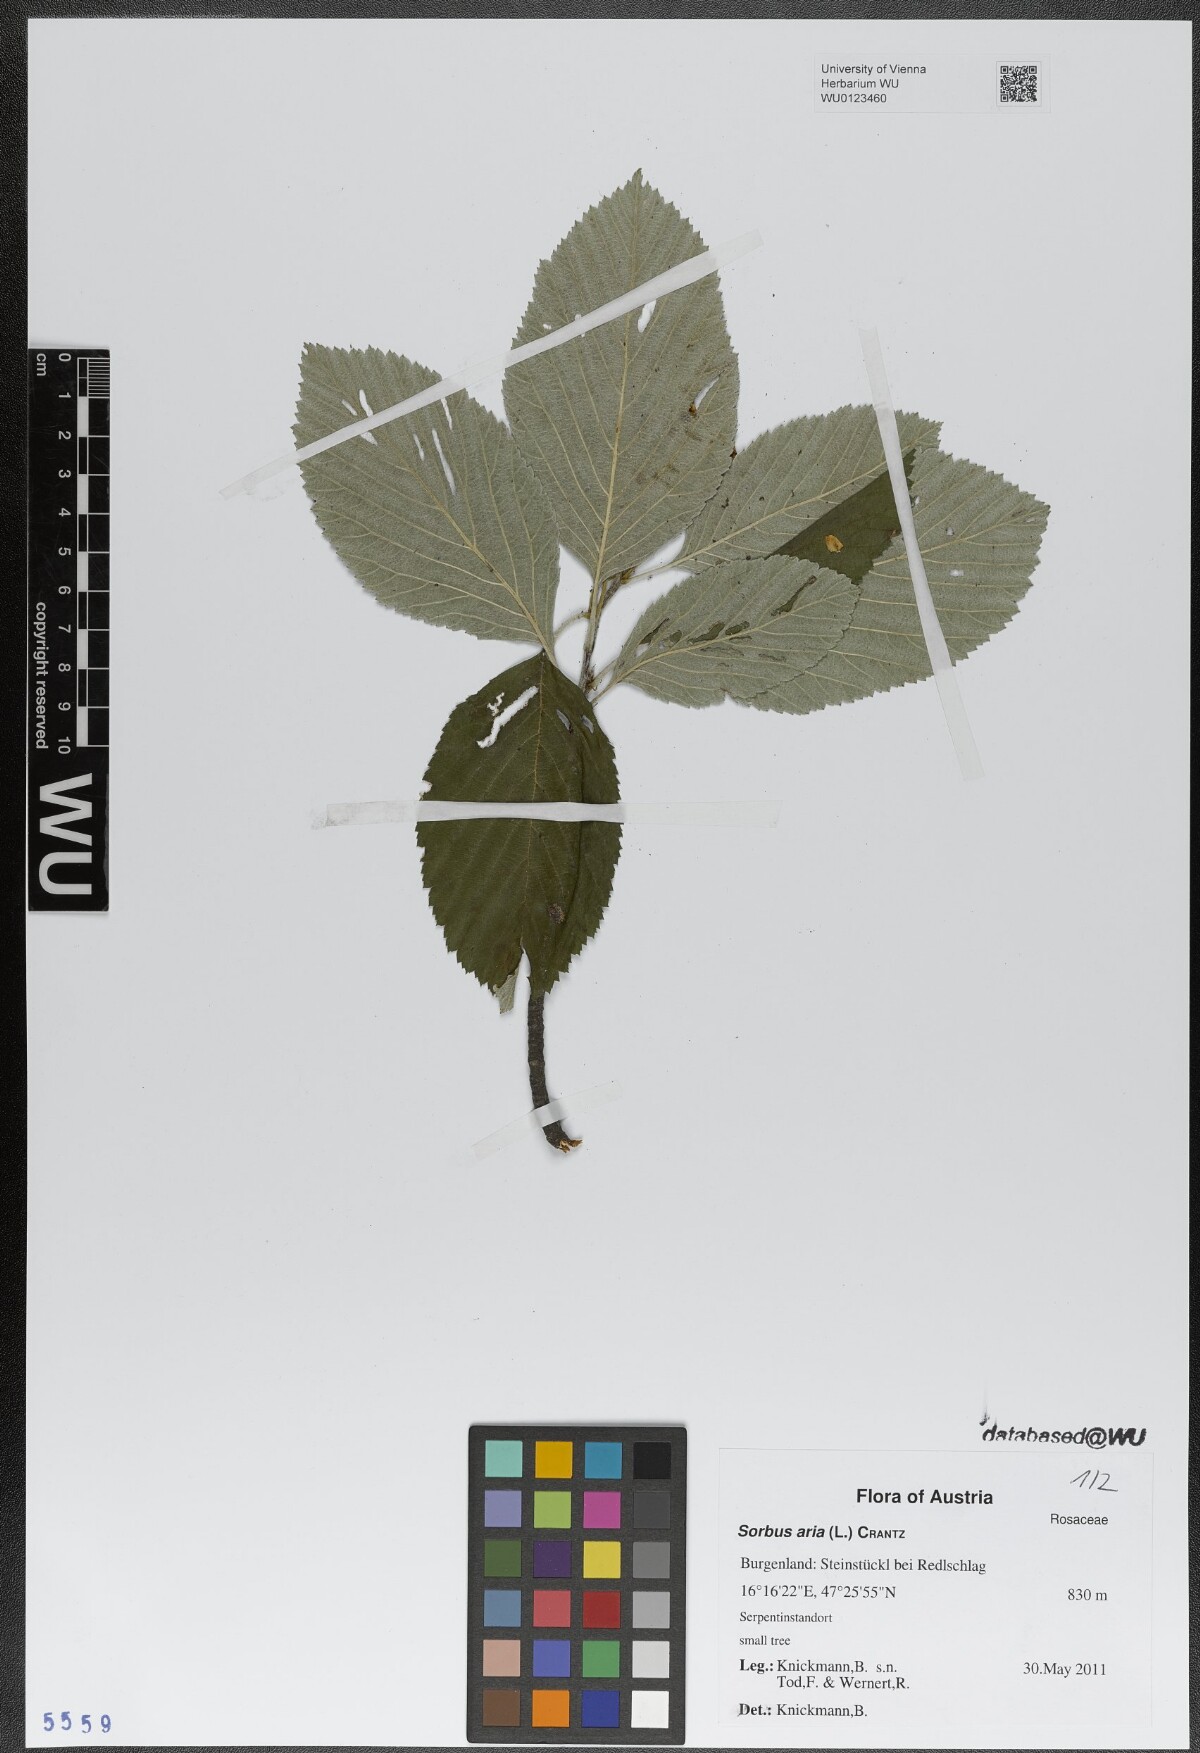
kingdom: Plantae
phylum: Tracheophyta
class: Magnoliopsida
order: Rosales
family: Rosaceae
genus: Aria
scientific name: Aria edulis
